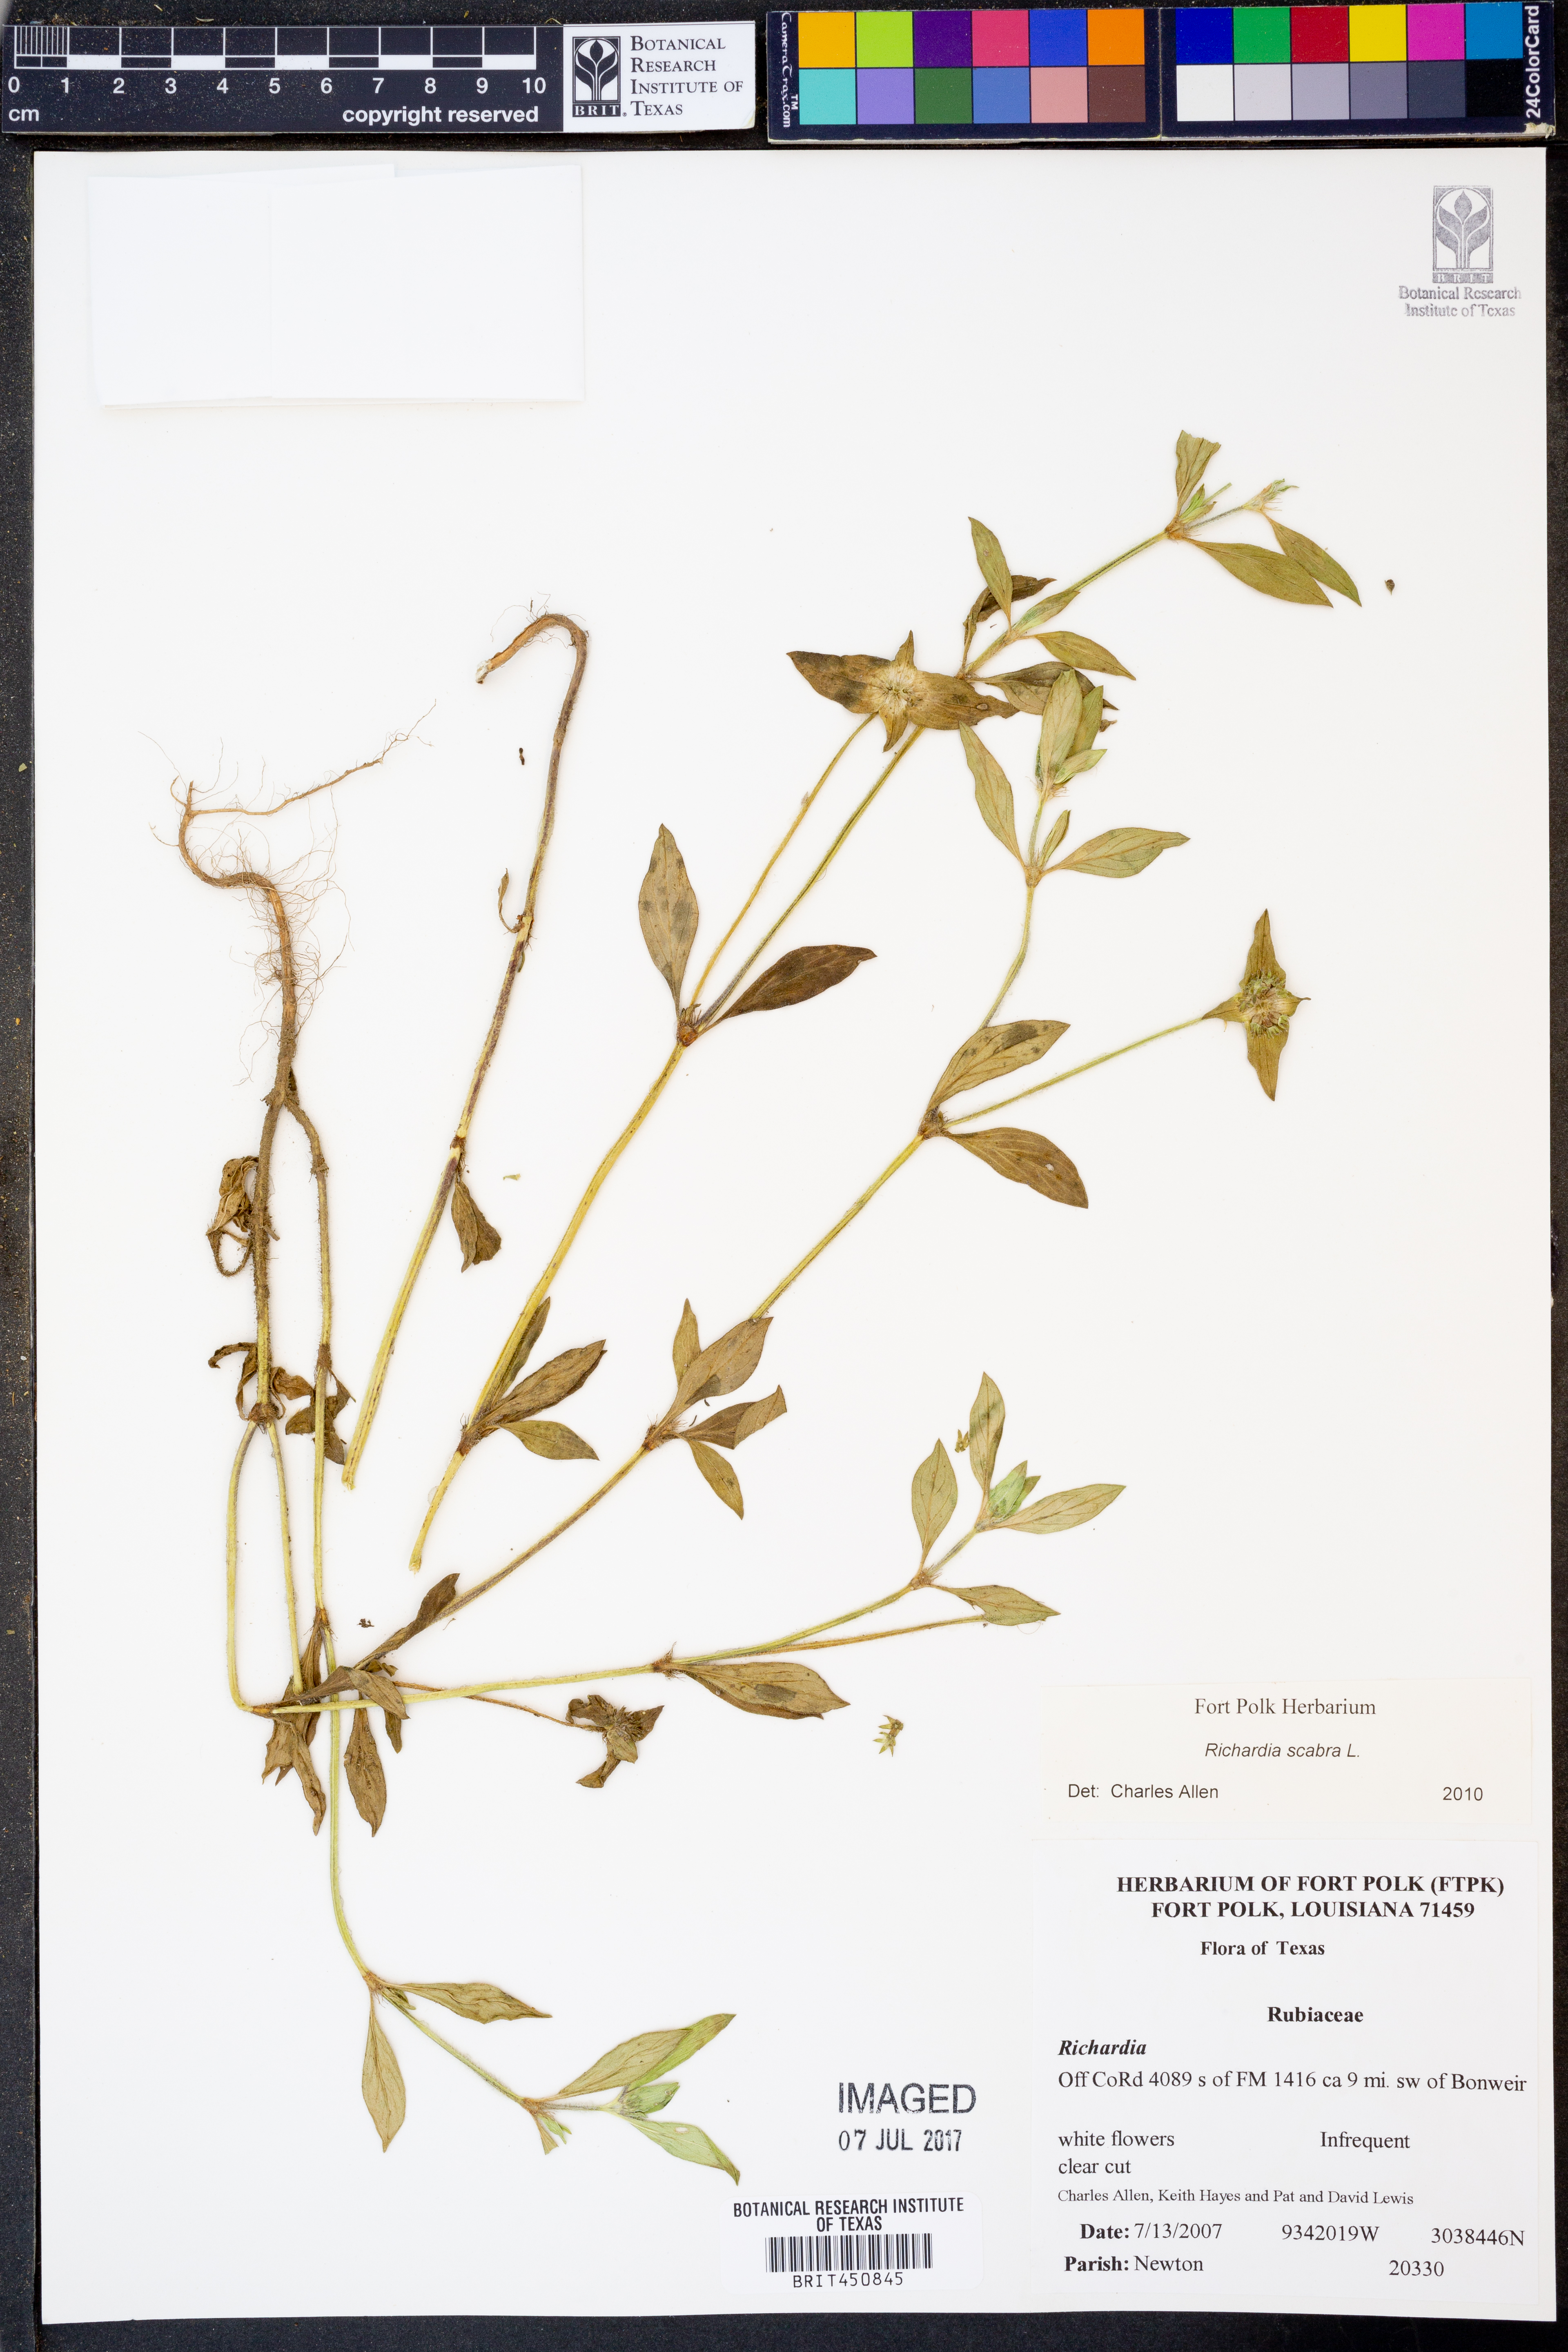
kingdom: Plantae
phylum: Tracheophyta
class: Magnoliopsida
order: Gentianales
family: Rubiaceae
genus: Richardia
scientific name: Richardia scabra
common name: Rough mexican clover
